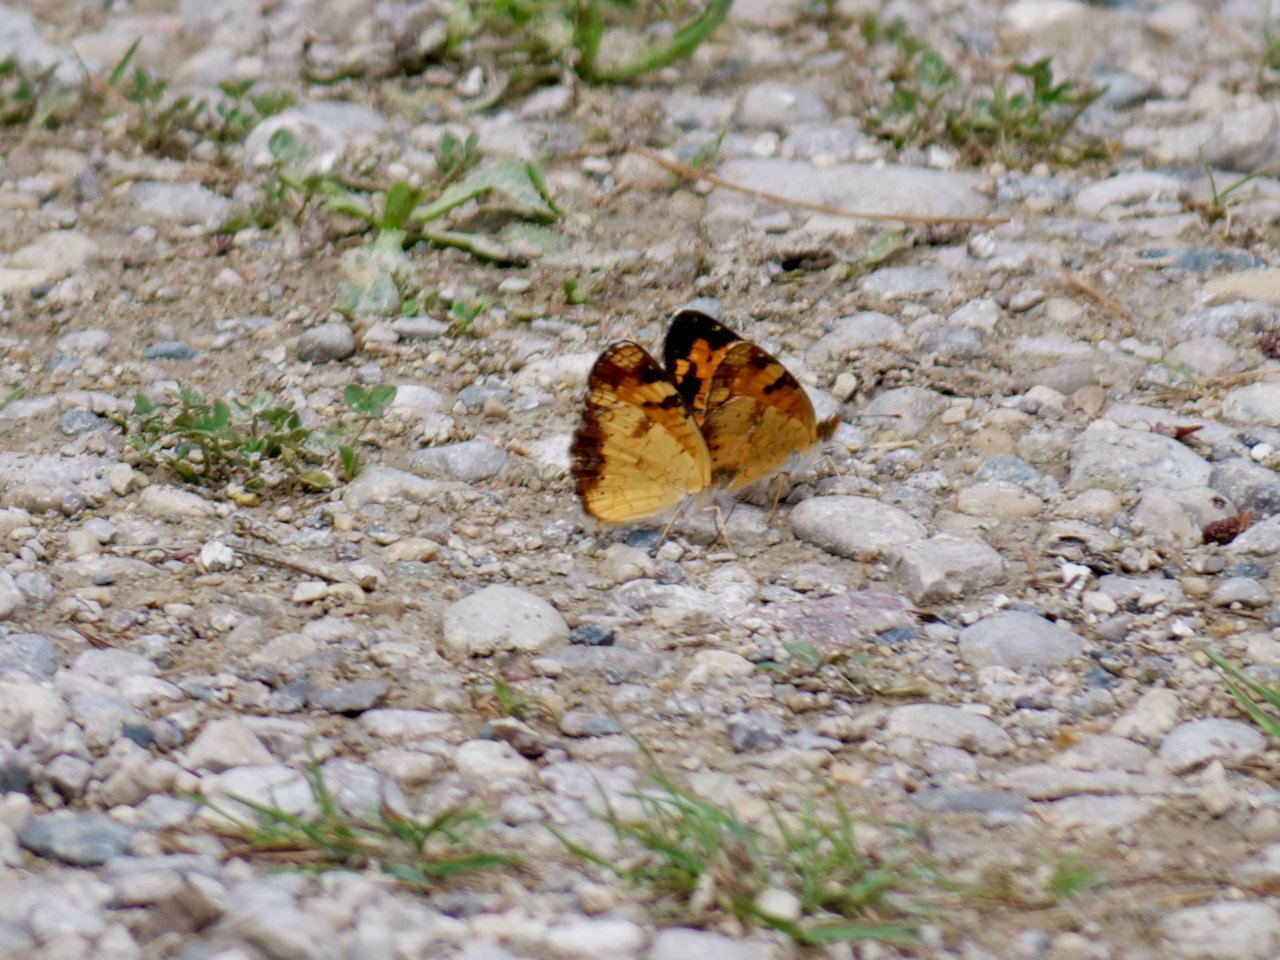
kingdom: Animalia
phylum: Arthropoda
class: Insecta
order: Lepidoptera
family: Nymphalidae
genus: Phyciodes
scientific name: Phyciodes tharos
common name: Northern Crescent
